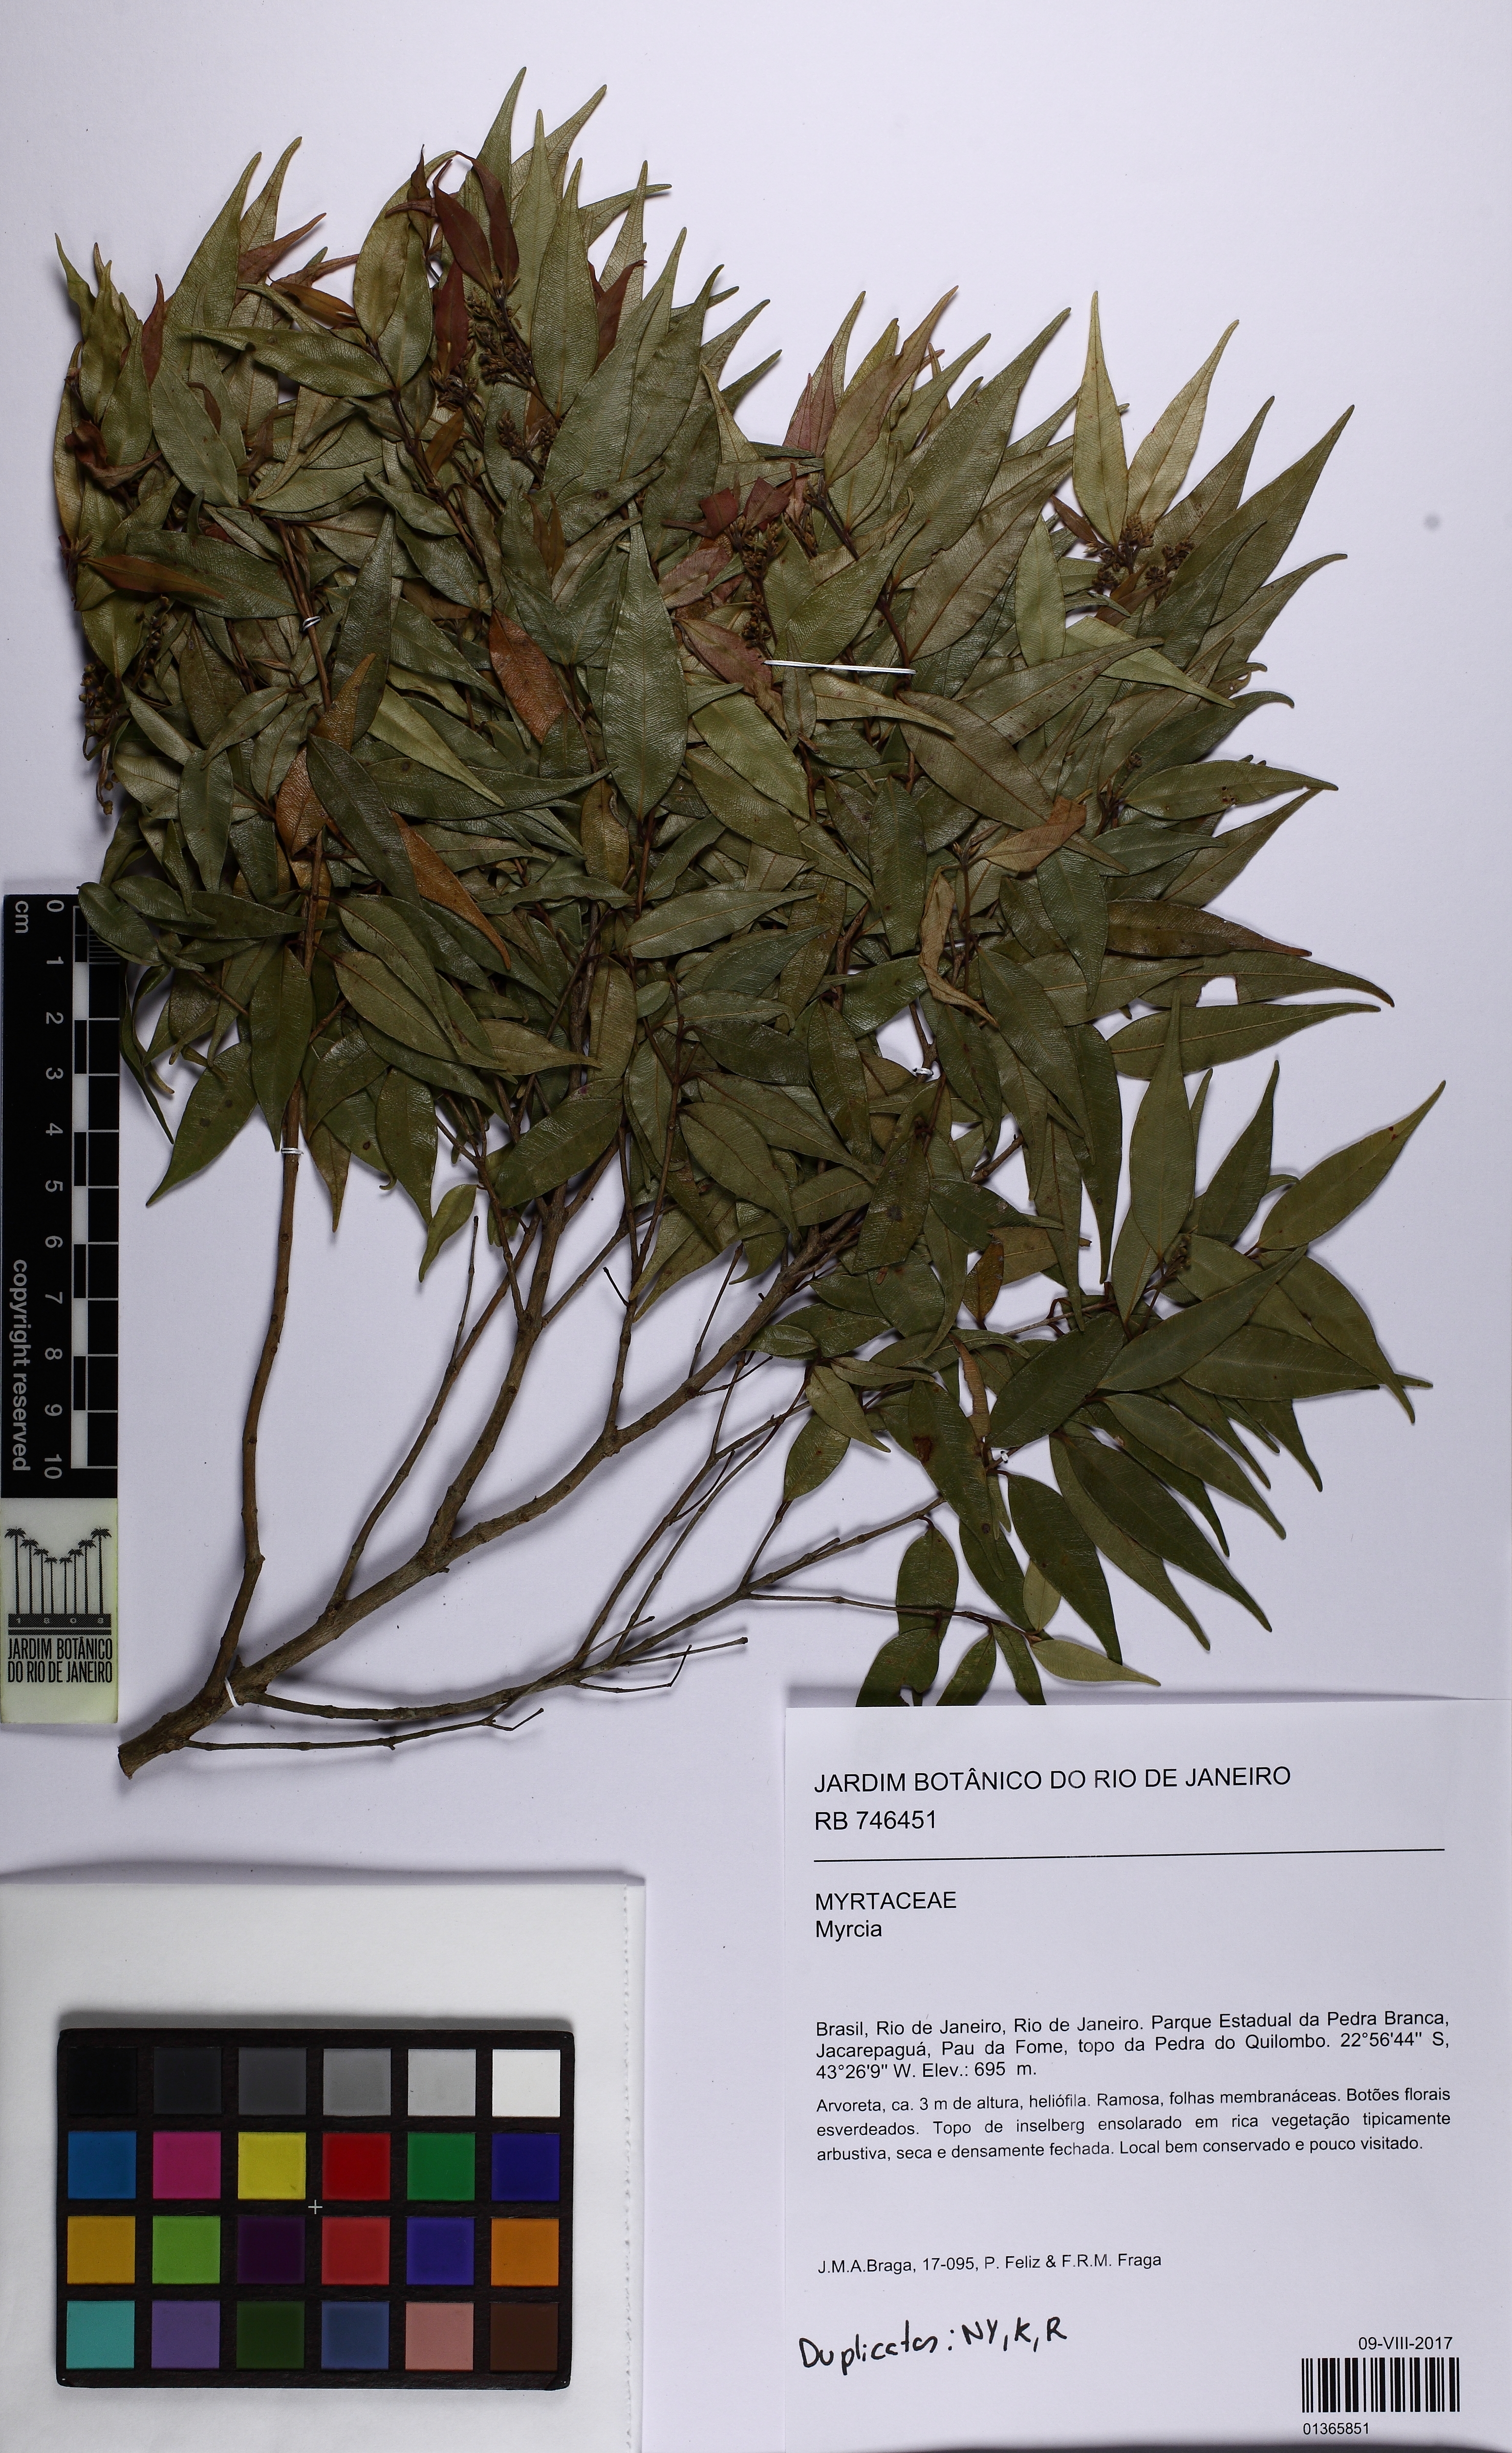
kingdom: Plantae
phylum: Tracheophyta
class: Magnoliopsida
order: Myrtales
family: Myrtaceae
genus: Myrcia
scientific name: Myrcia splendens
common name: Surinam cherry
